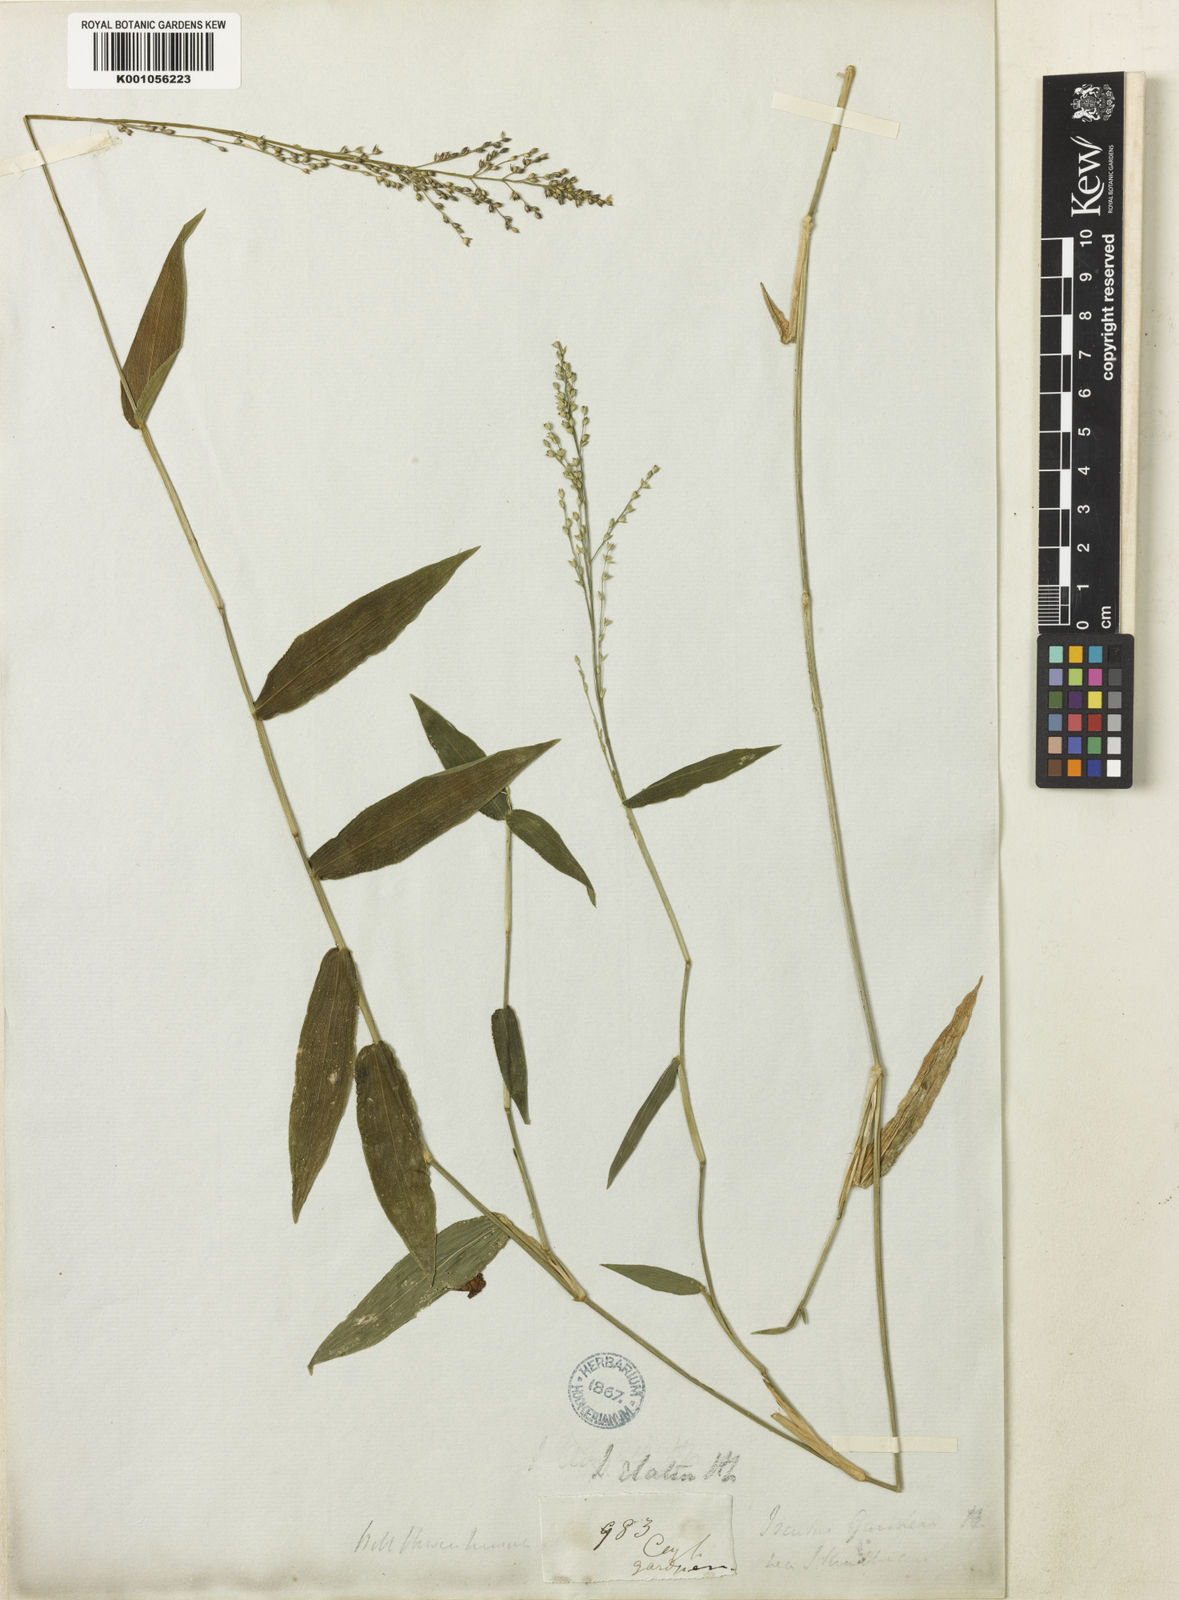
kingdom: Plantae
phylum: Tracheophyta
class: Liliopsida
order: Poales
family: Poaceae
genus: Isachne
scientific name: Isachne kunthiana
